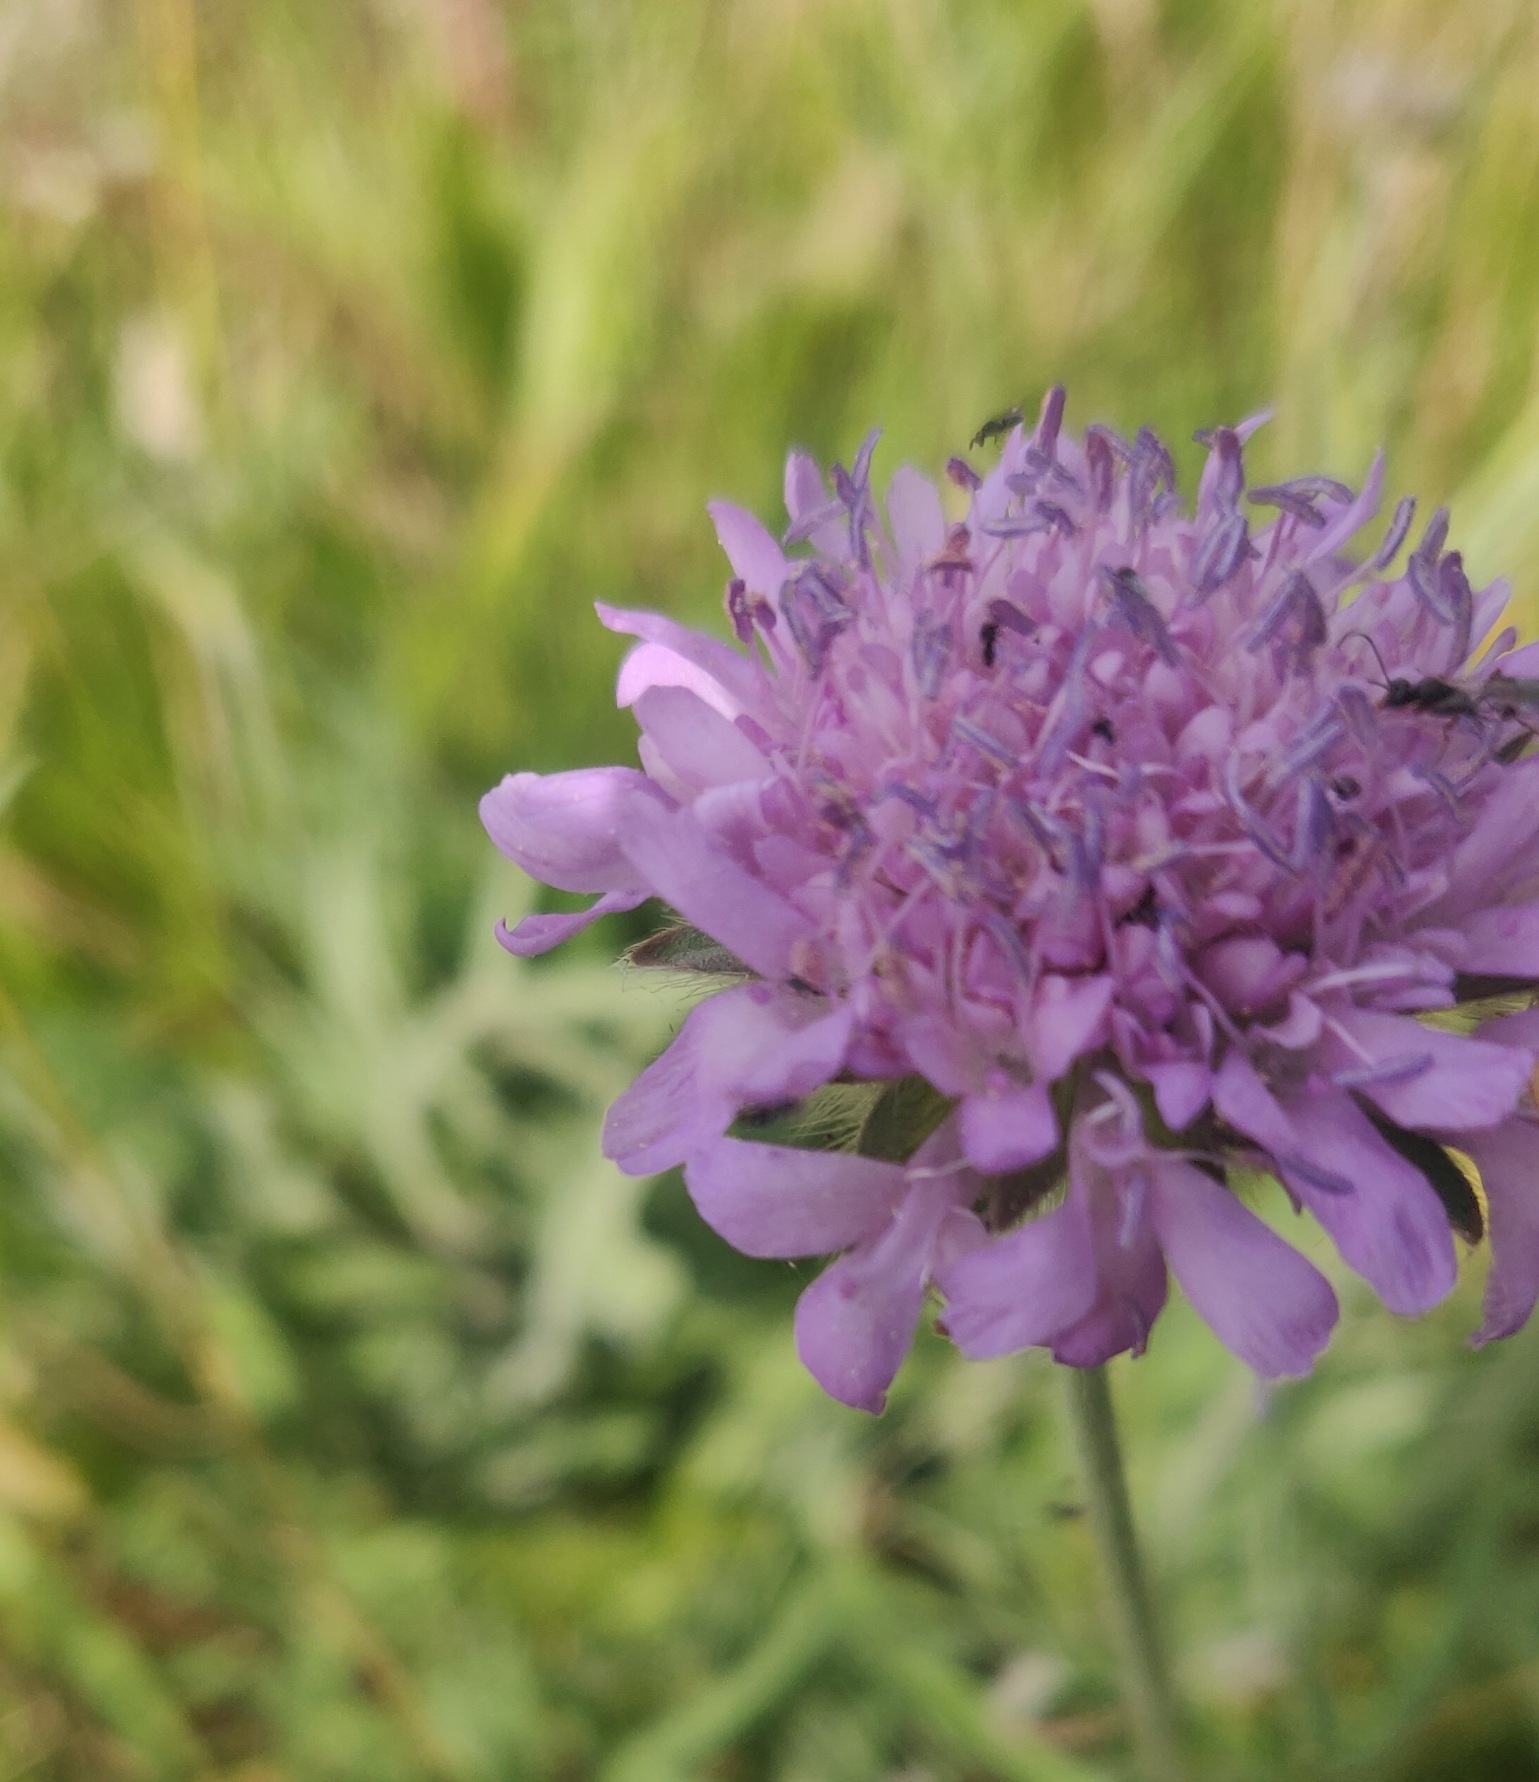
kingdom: Plantae
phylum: Tracheophyta
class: Magnoliopsida
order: Dipsacales
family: Caprifoliaceae
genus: Knautia
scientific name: Knautia arvensis
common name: Blåhat
